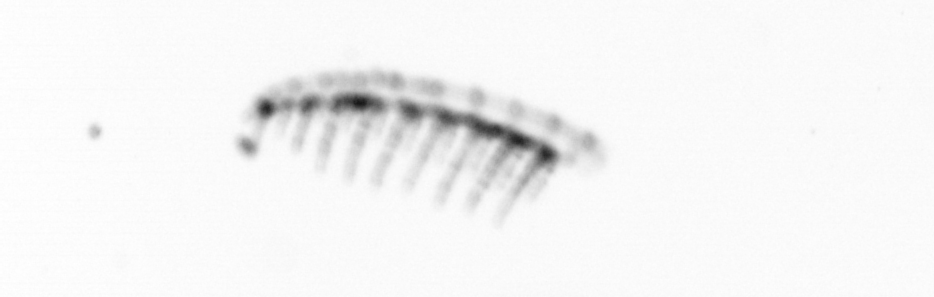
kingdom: Chromista
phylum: Ochrophyta
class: Bacillariophyceae
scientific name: Bacillariophyceae
